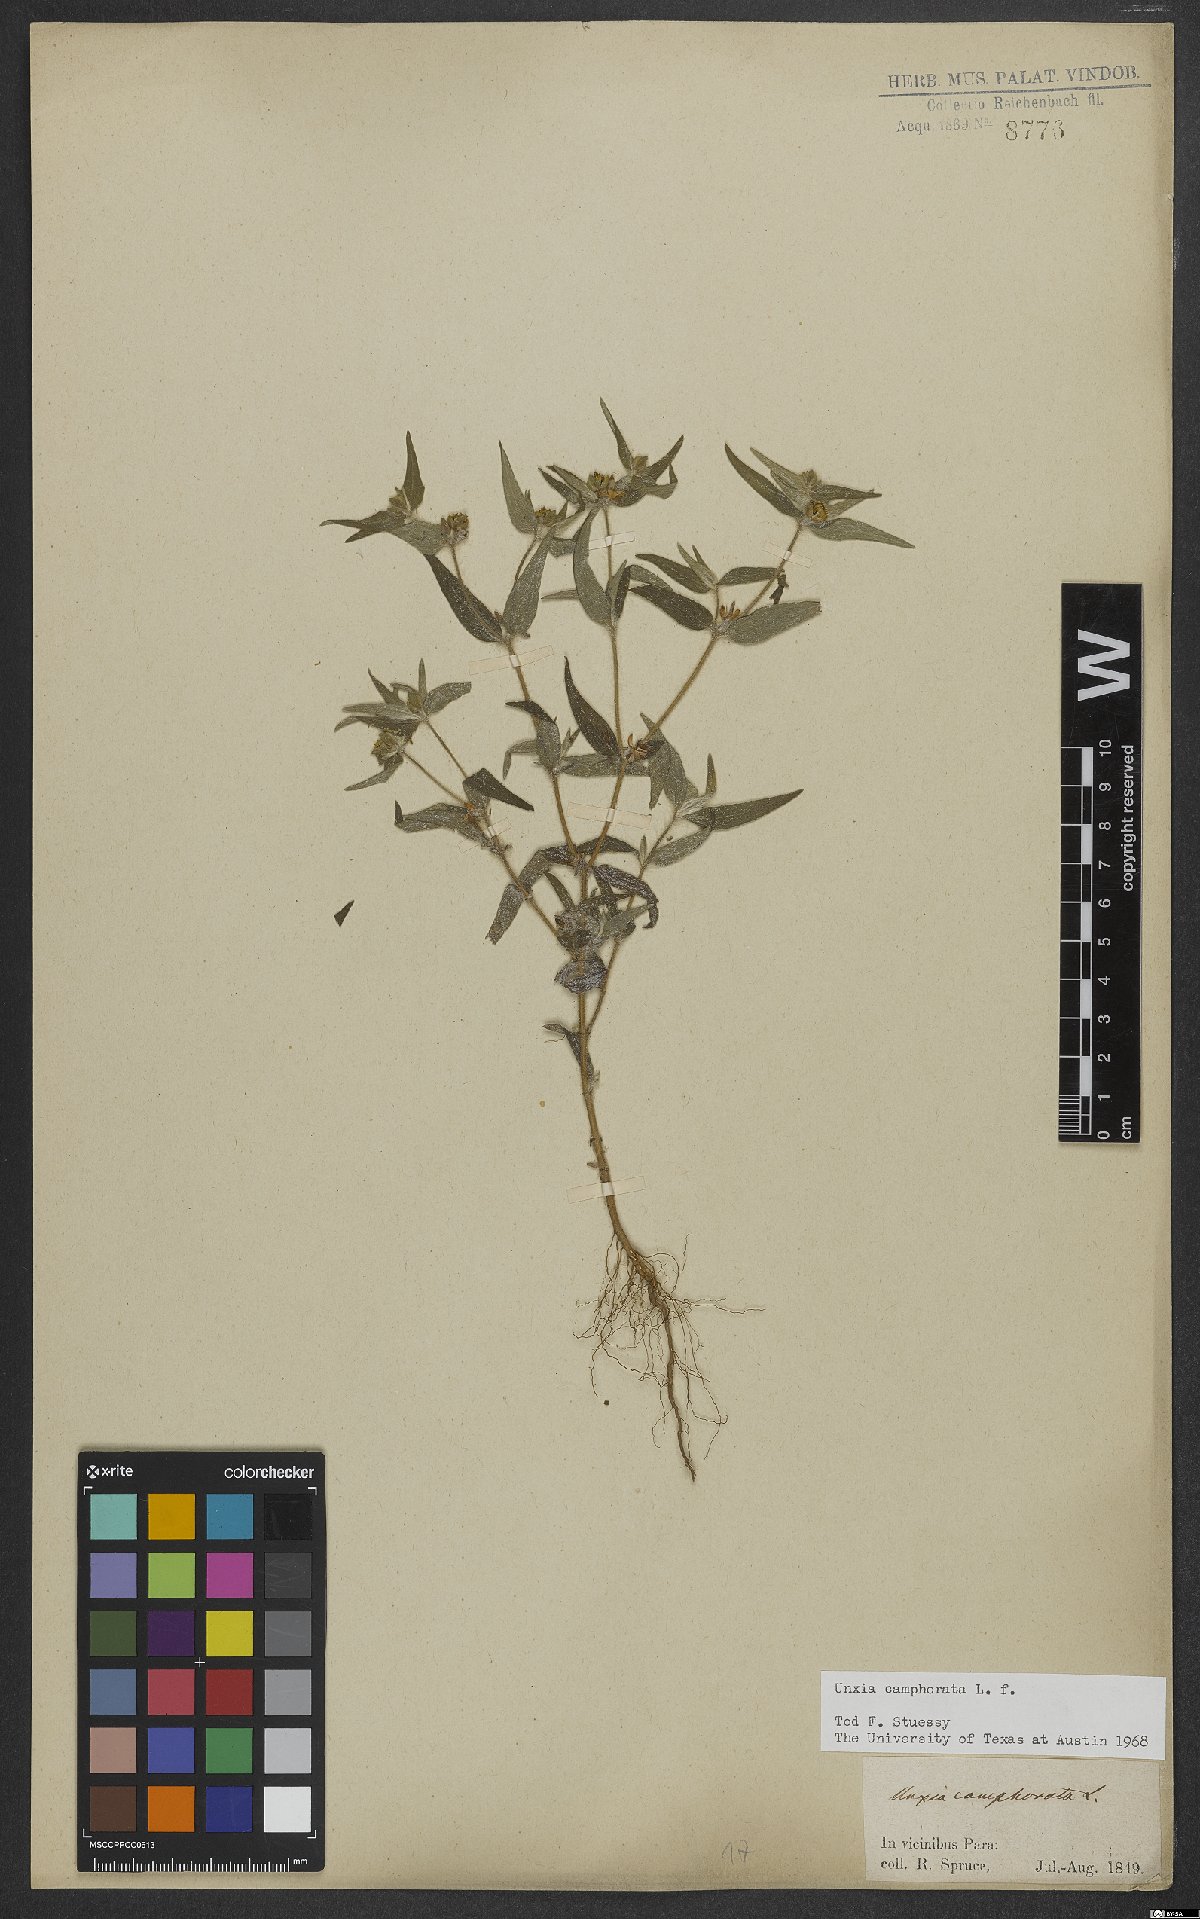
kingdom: Plantae
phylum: Tracheophyta
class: Magnoliopsida
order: Asterales
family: Asteraceae
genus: Unxia
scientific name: Unxia camphorata
